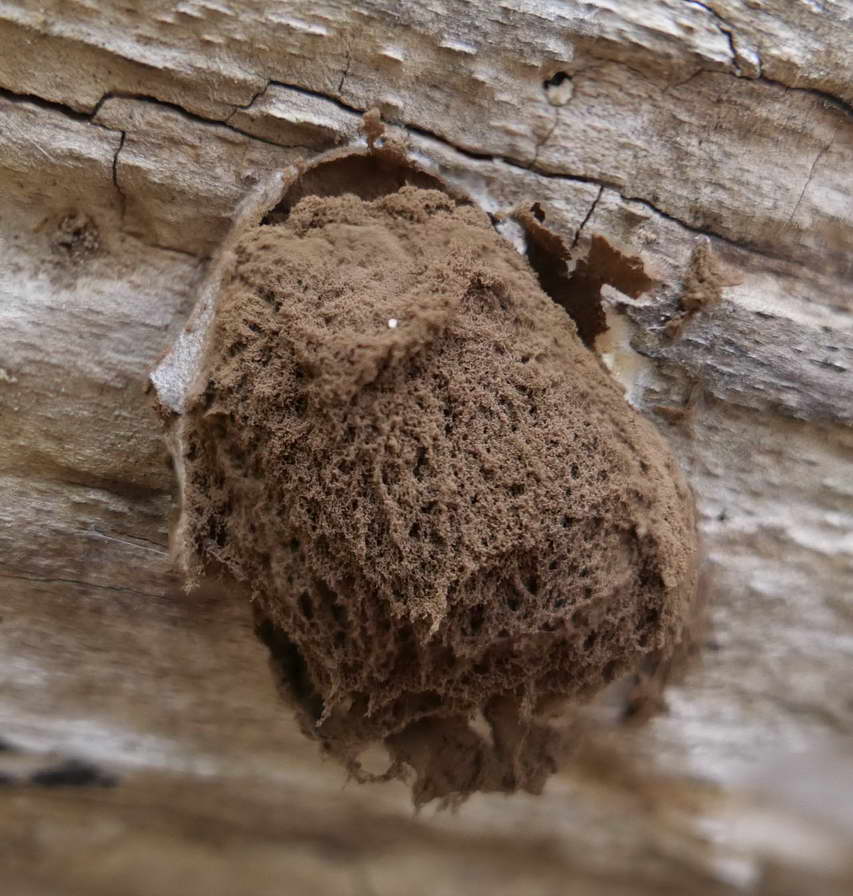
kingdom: Protozoa
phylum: Mycetozoa
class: Myxomycetes
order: Cribrariales
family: Tubiferaceae
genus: Reticularia
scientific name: Reticularia lycoperdon
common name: skinnende støvpude
